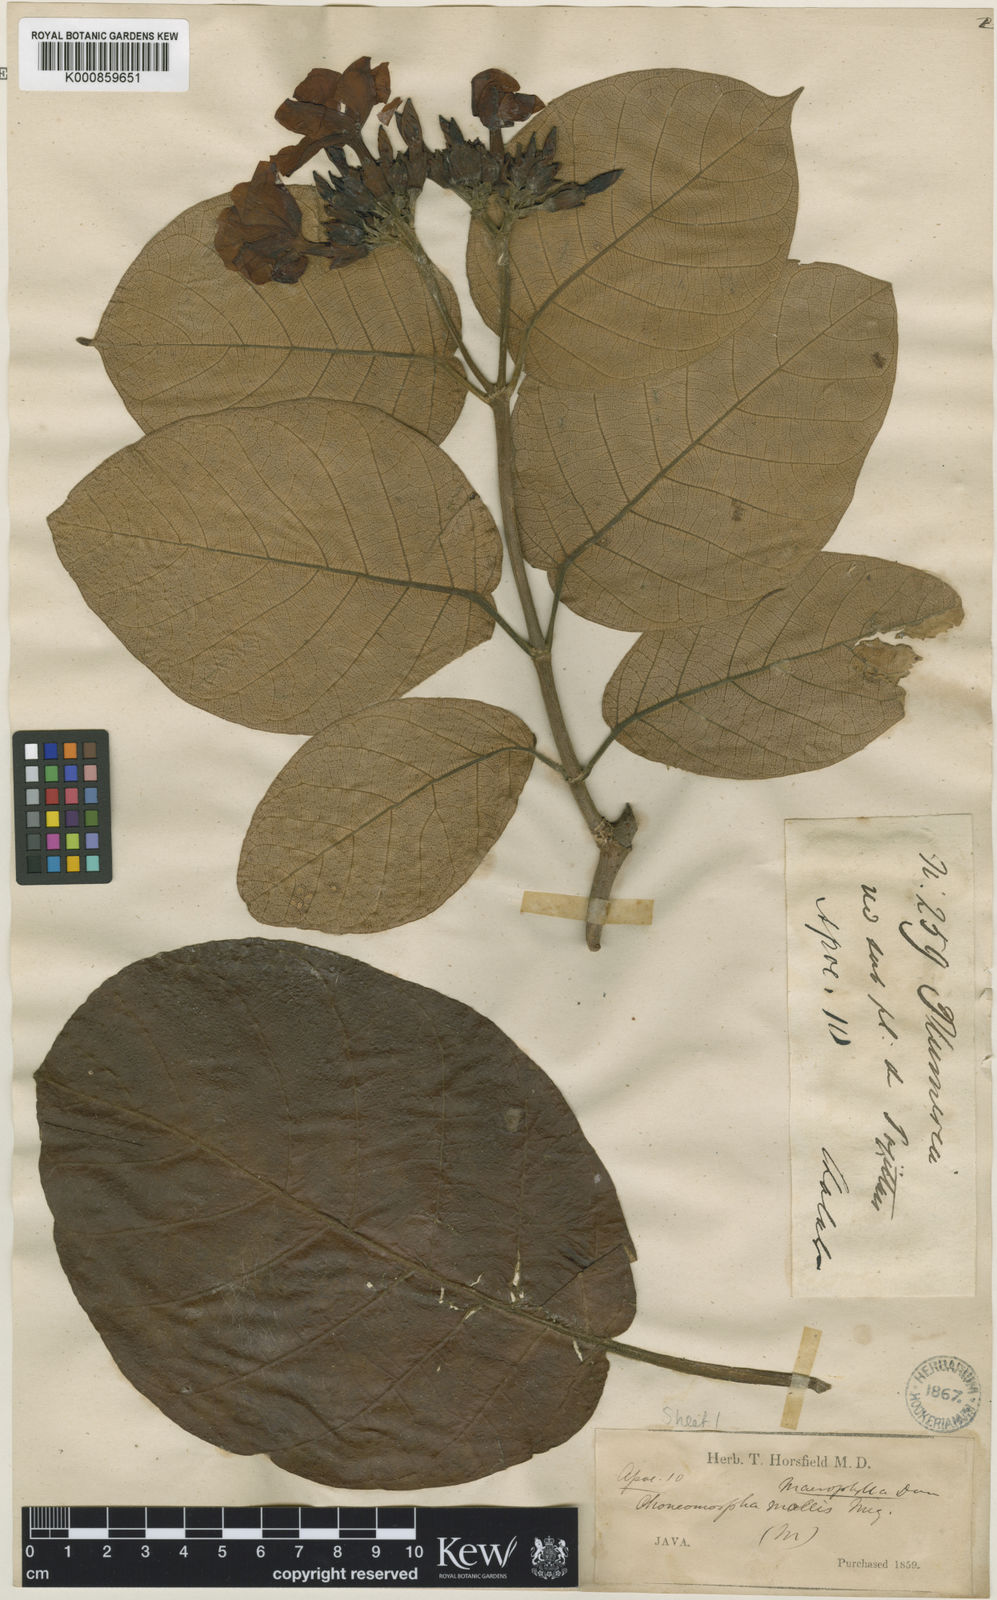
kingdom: Plantae
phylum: Tracheophyta
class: Magnoliopsida
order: Gentianales
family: Apocynaceae
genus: Chonemorpha
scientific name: Chonemorpha
